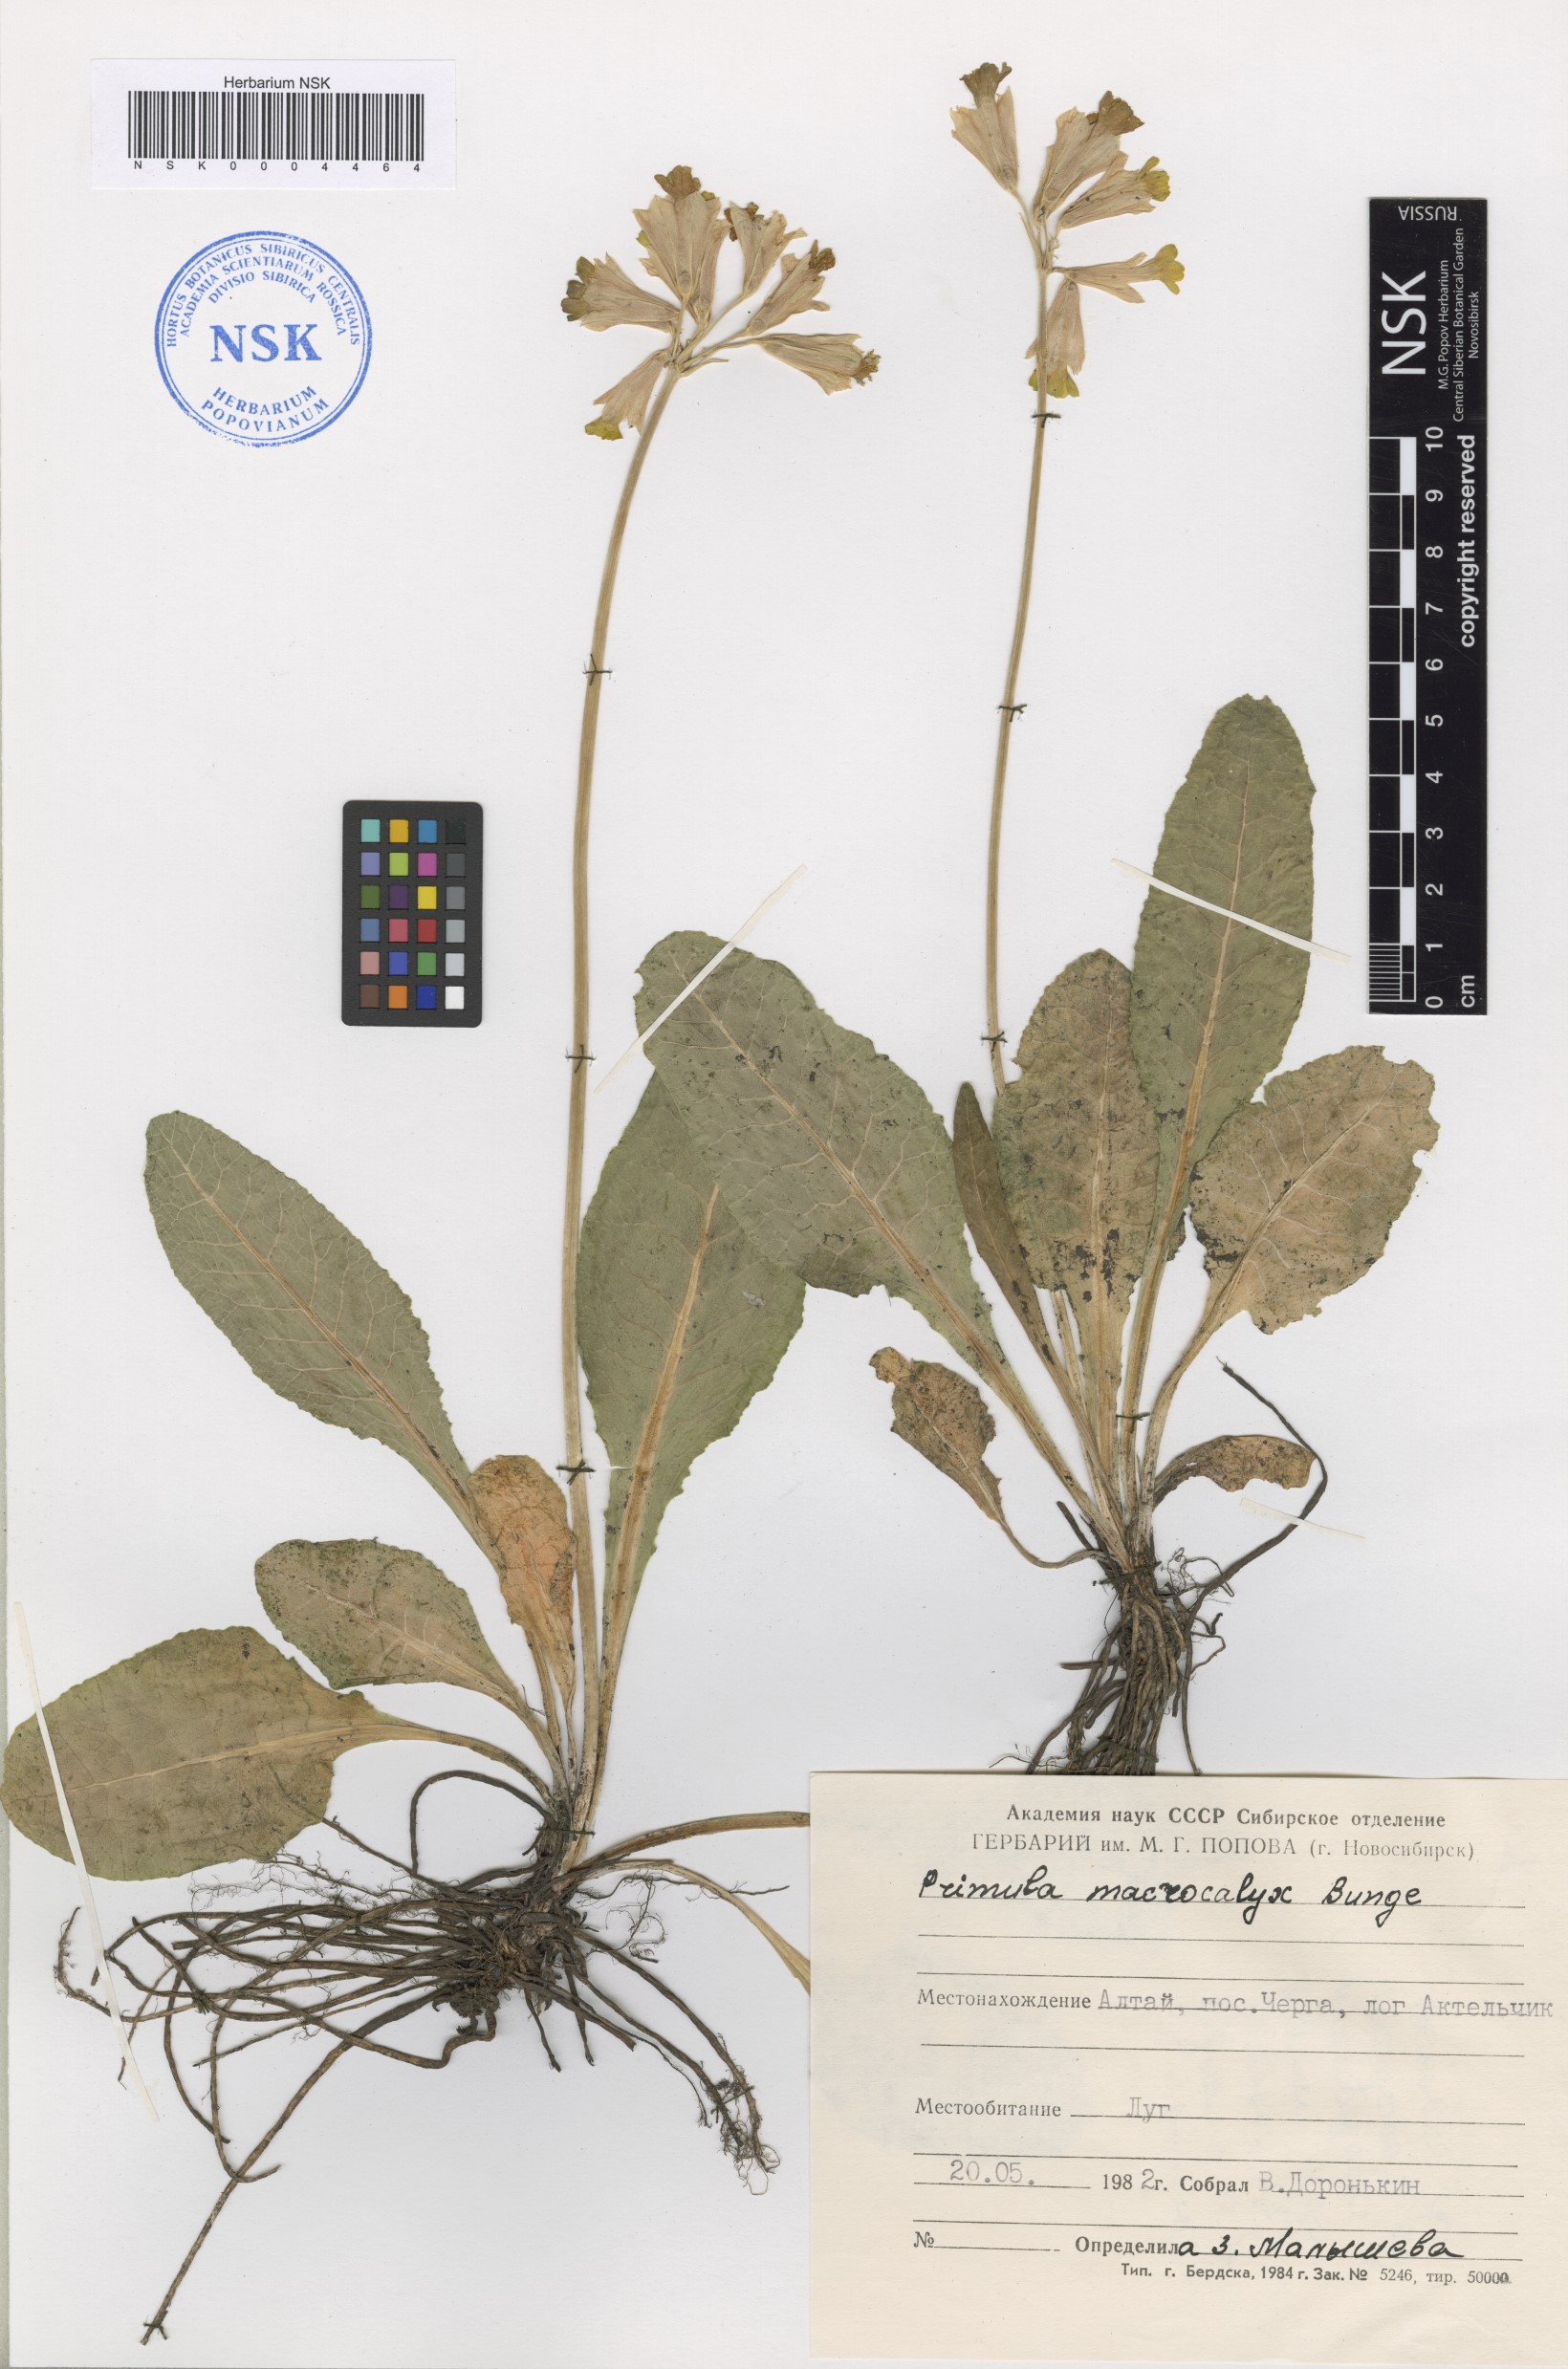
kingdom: Plantae
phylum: Tracheophyta
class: Magnoliopsida
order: Ericales
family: Primulaceae
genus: Primula
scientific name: Primula veris
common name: Cowslip
